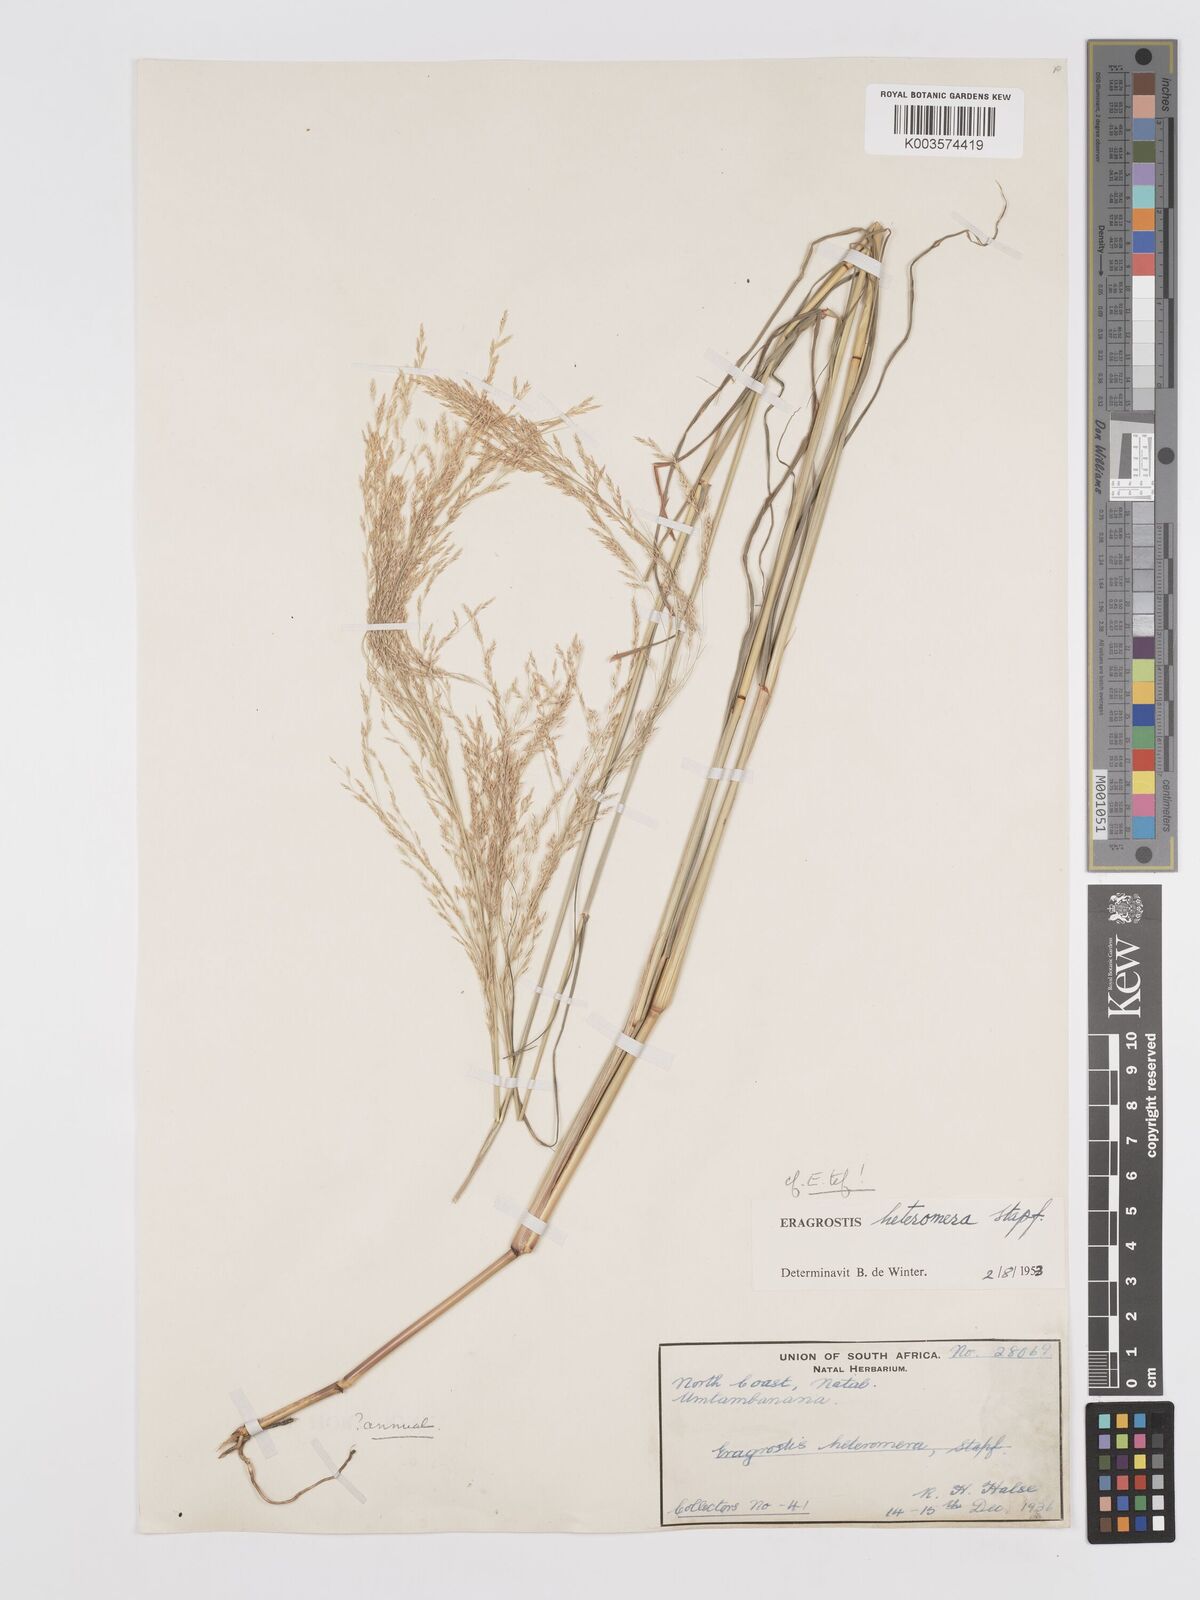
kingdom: Plantae
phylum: Tracheophyta
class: Liliopsida
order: Poales
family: Poaceae
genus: Eragrostis
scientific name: Eragrostis heteromera
